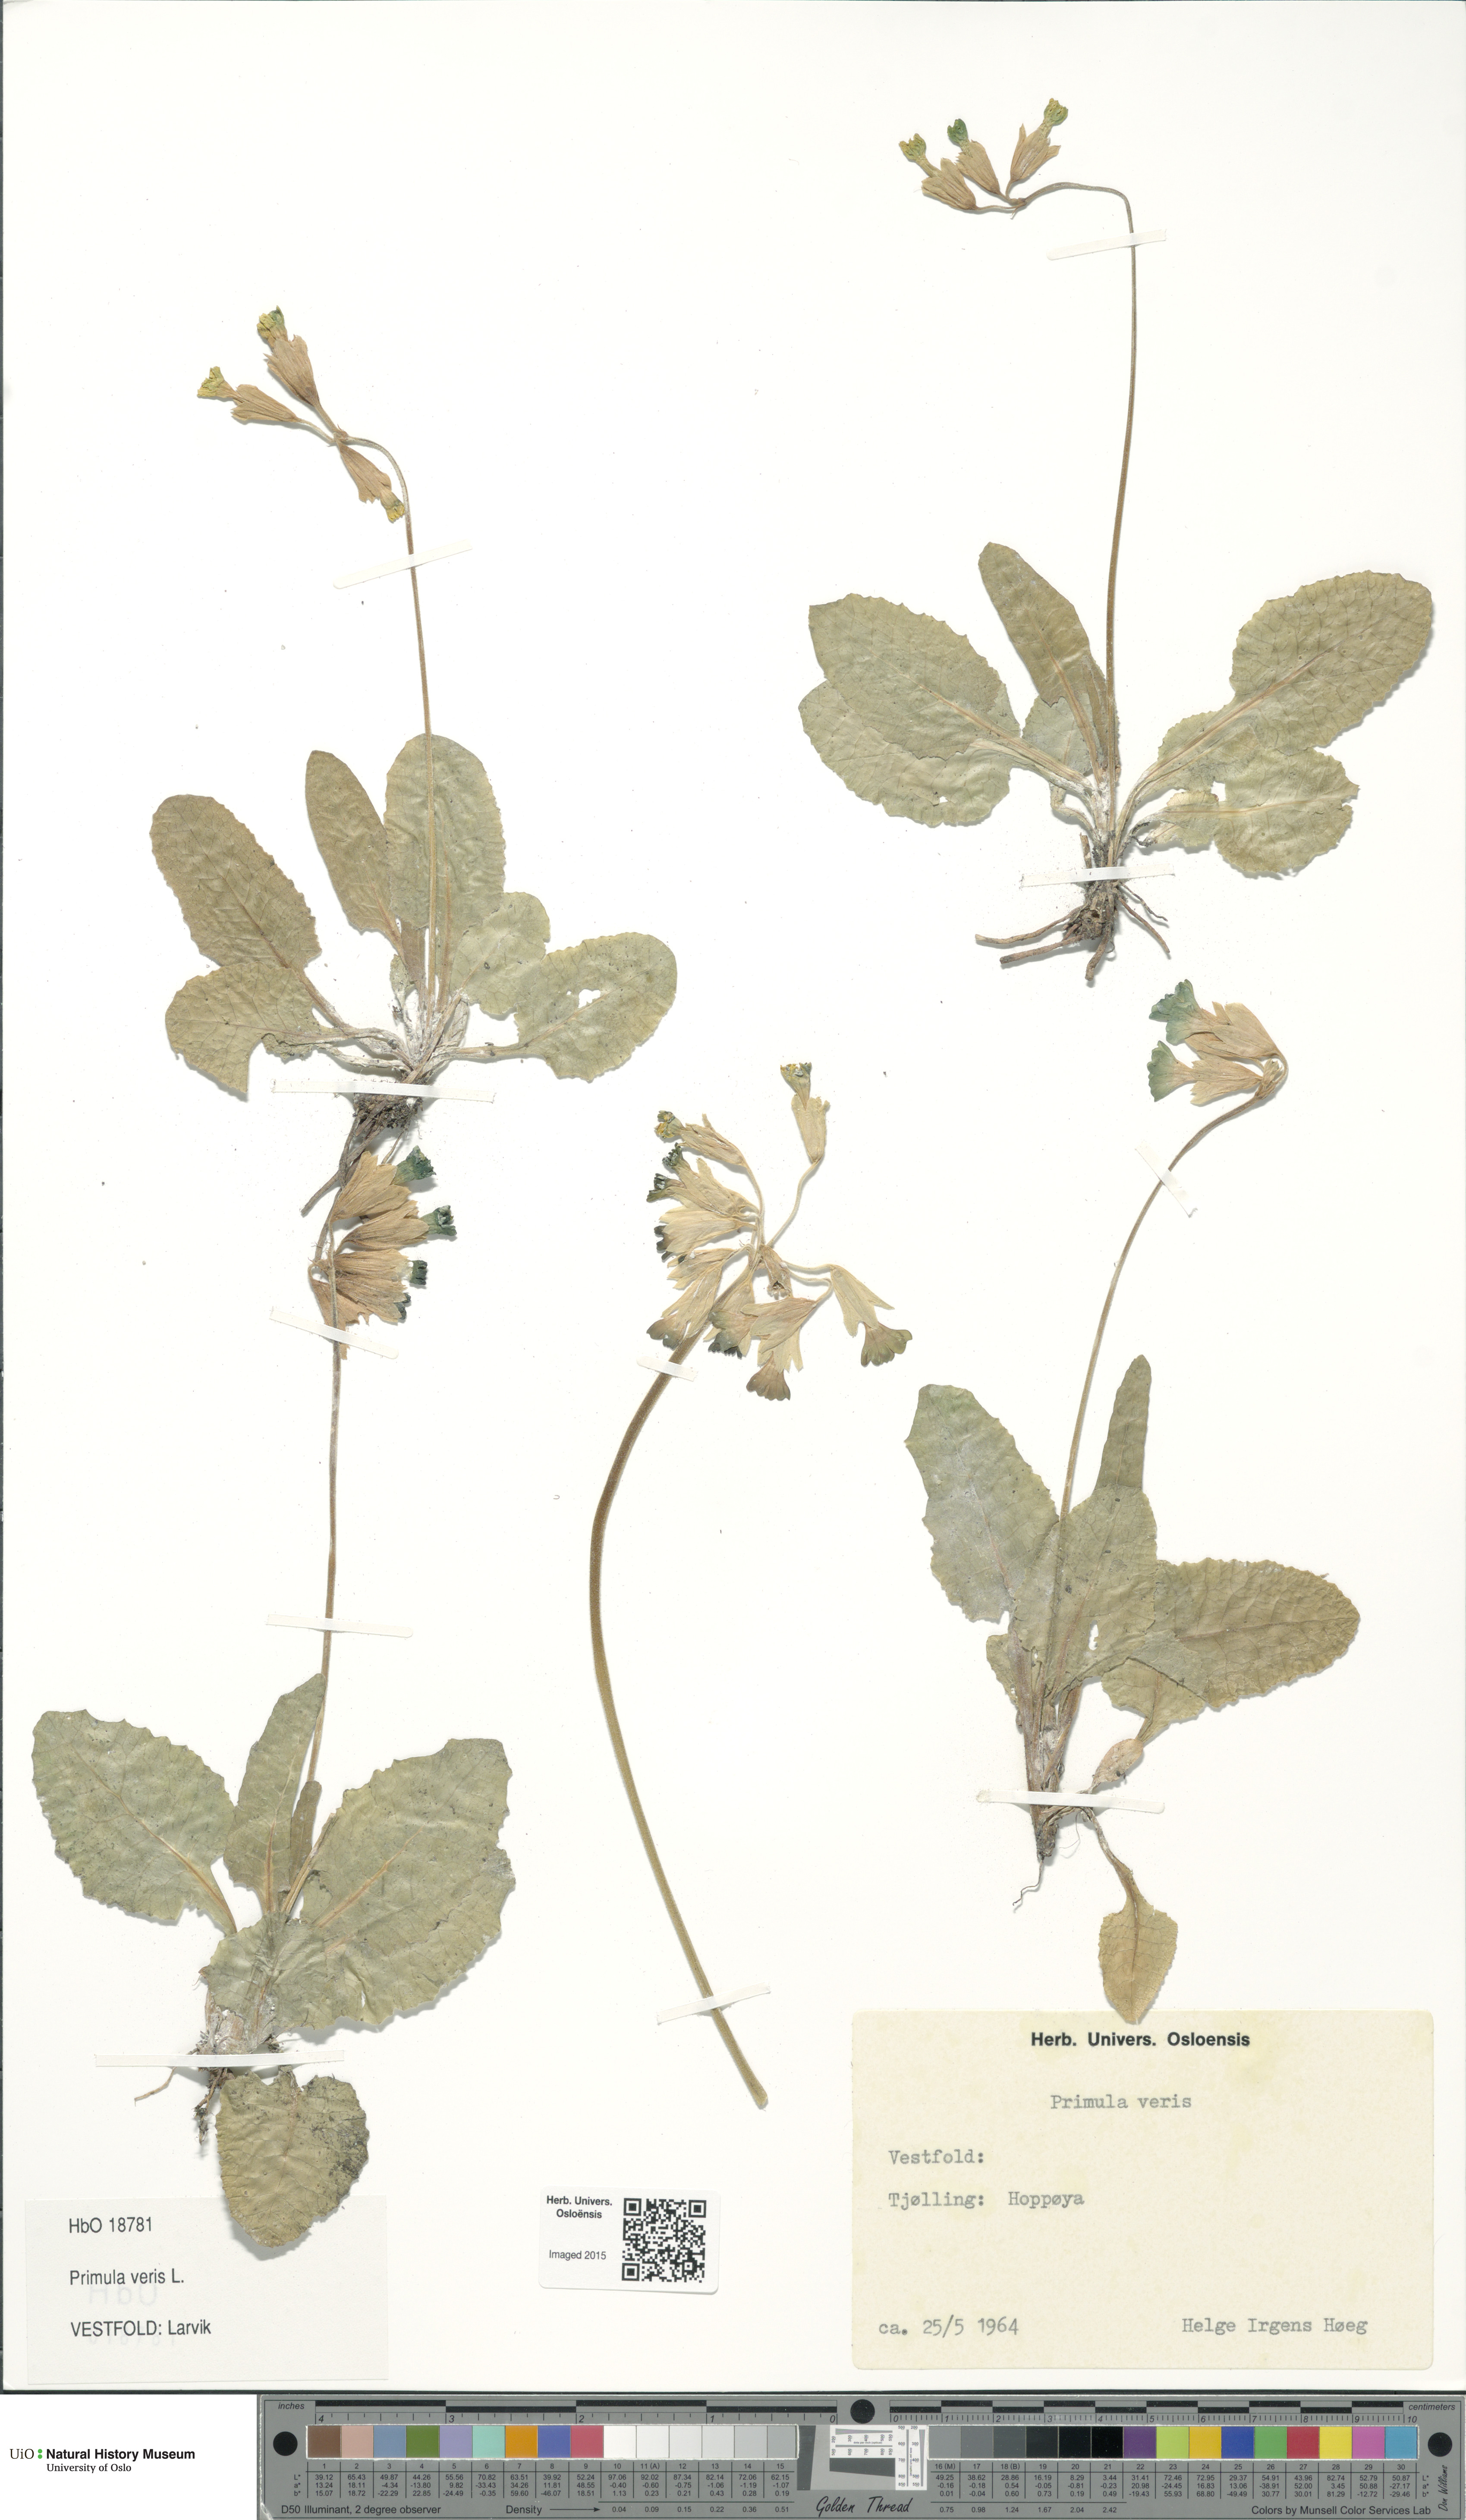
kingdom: Plantae
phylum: Tracheophyta
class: Magnoliopsida
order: Ericales
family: Primulaceae
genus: Primula
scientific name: Primula veris
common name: Cowslip
